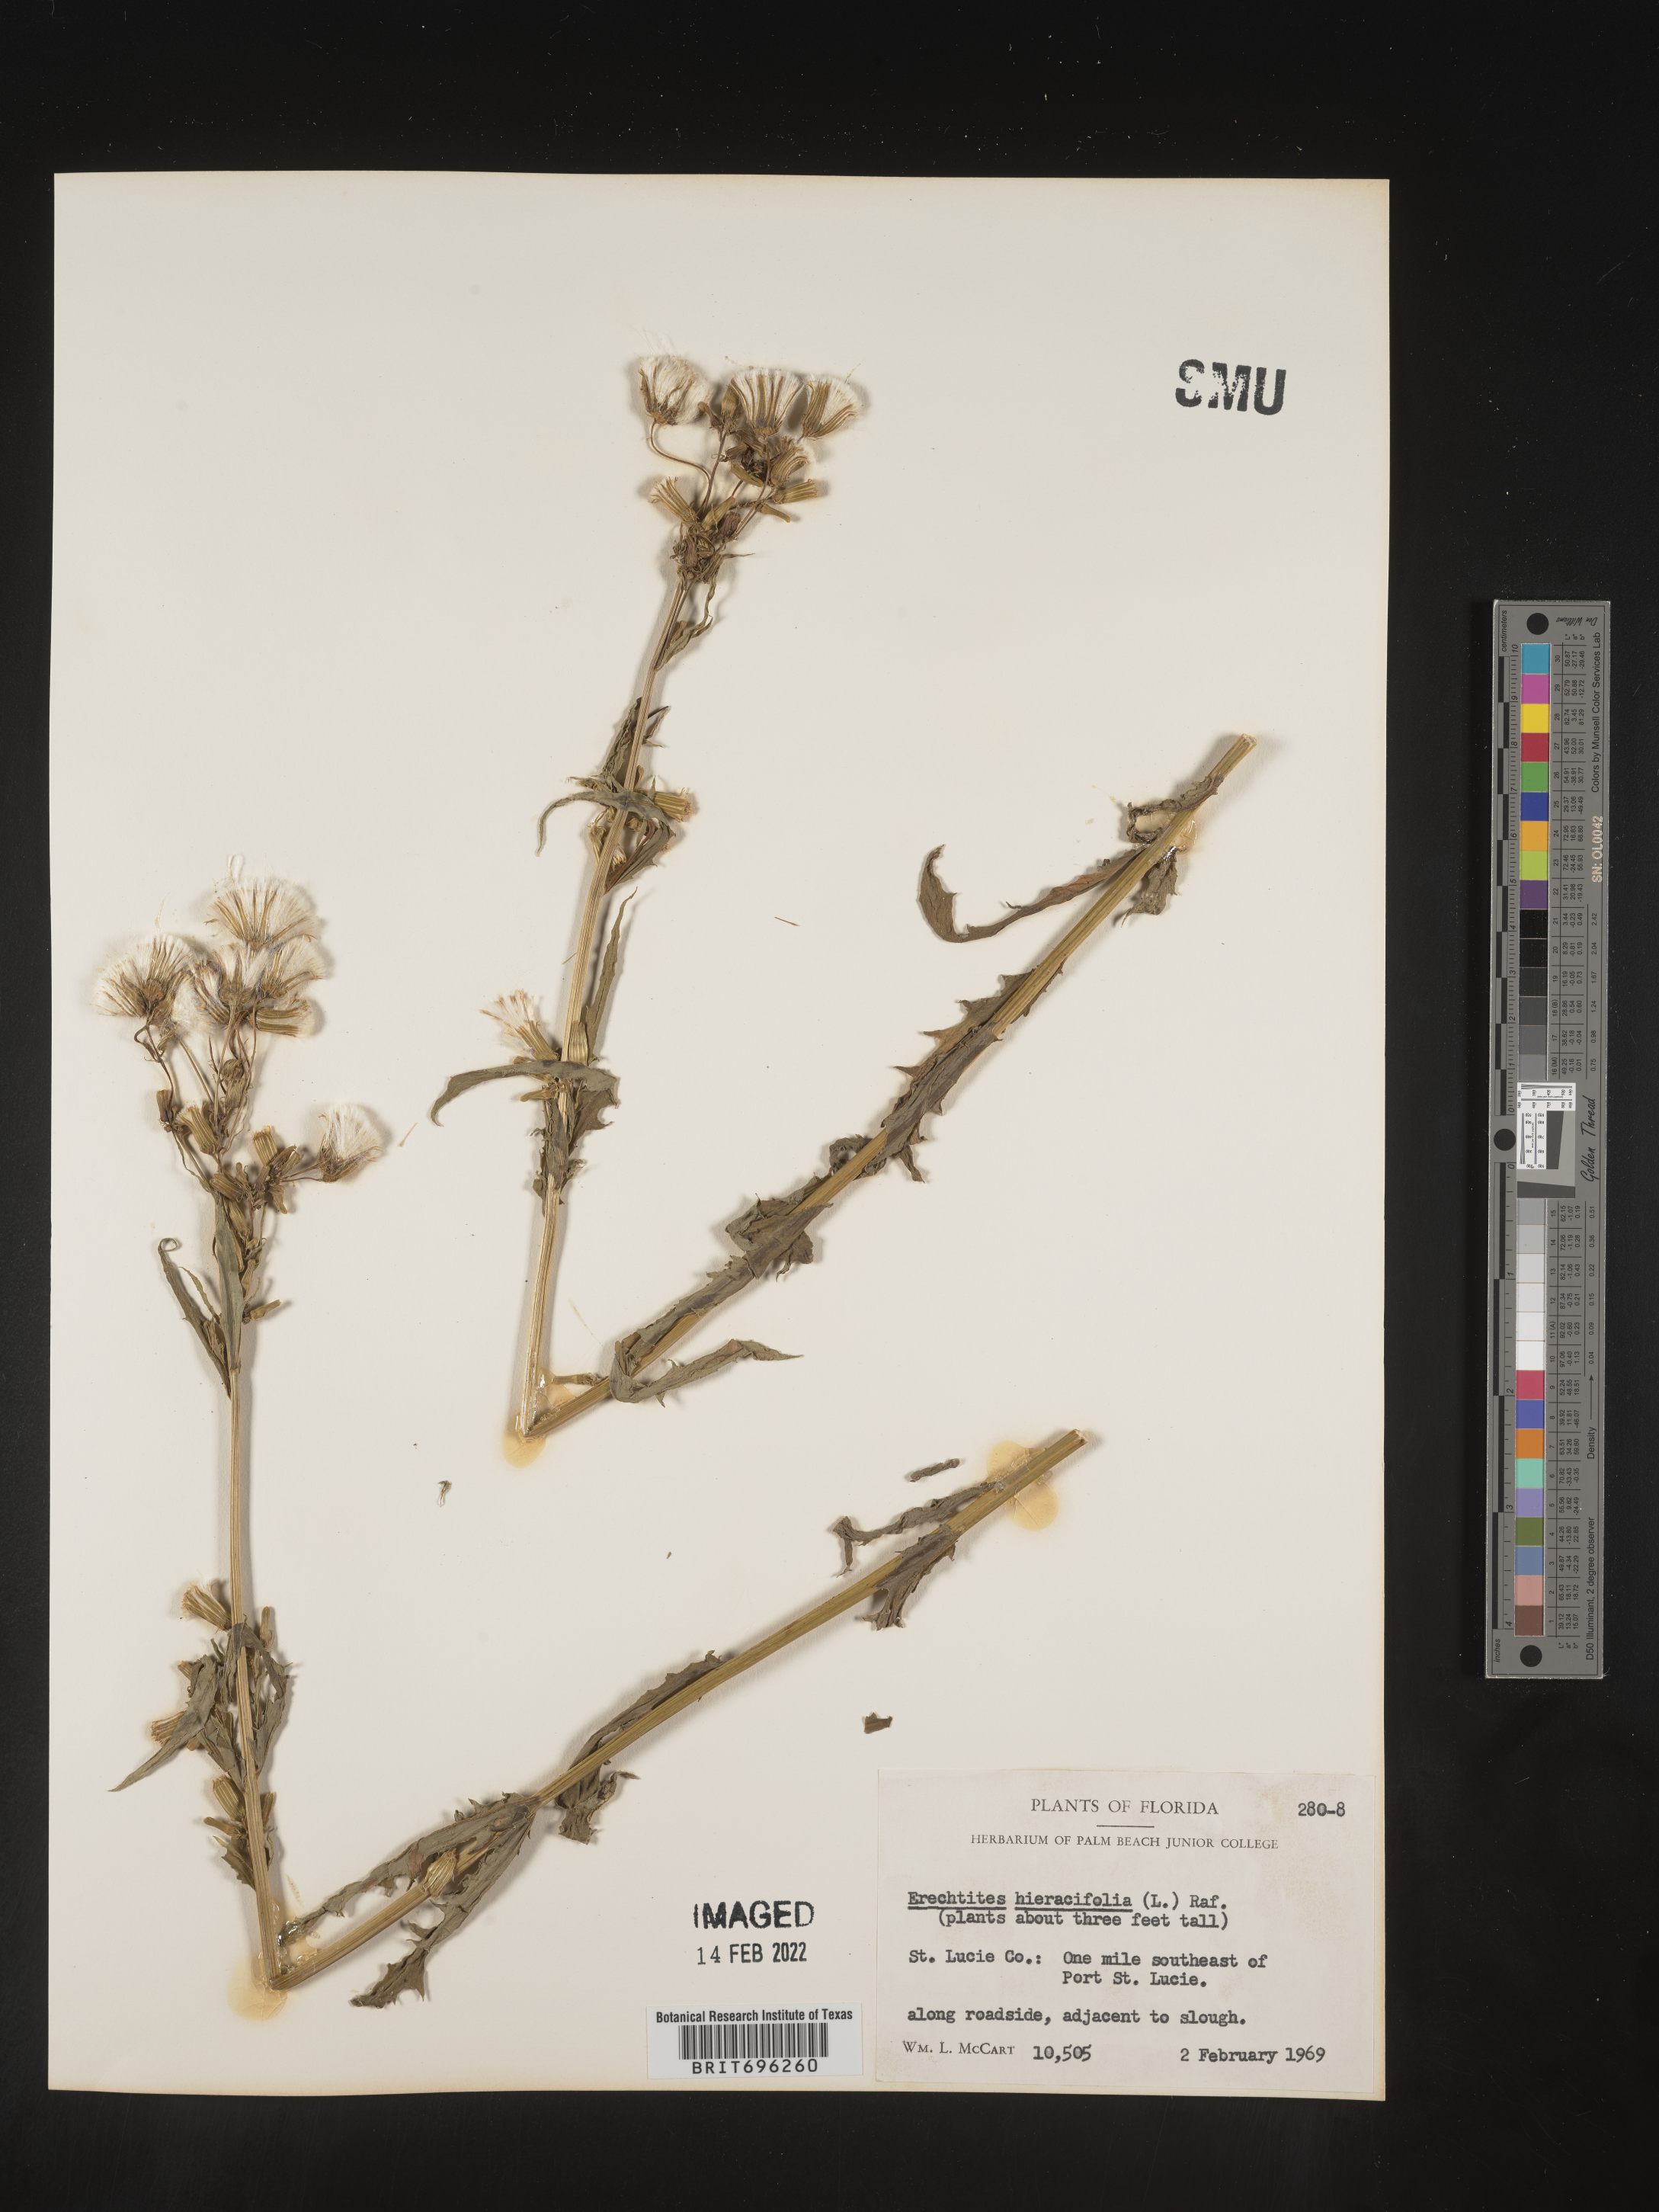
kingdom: Plantae
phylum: Tracheophyta
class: Magnoliopsida
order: Asterales
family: Asteraceae
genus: Erechtites
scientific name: Erechtites hieraciifolius
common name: American burnweed
